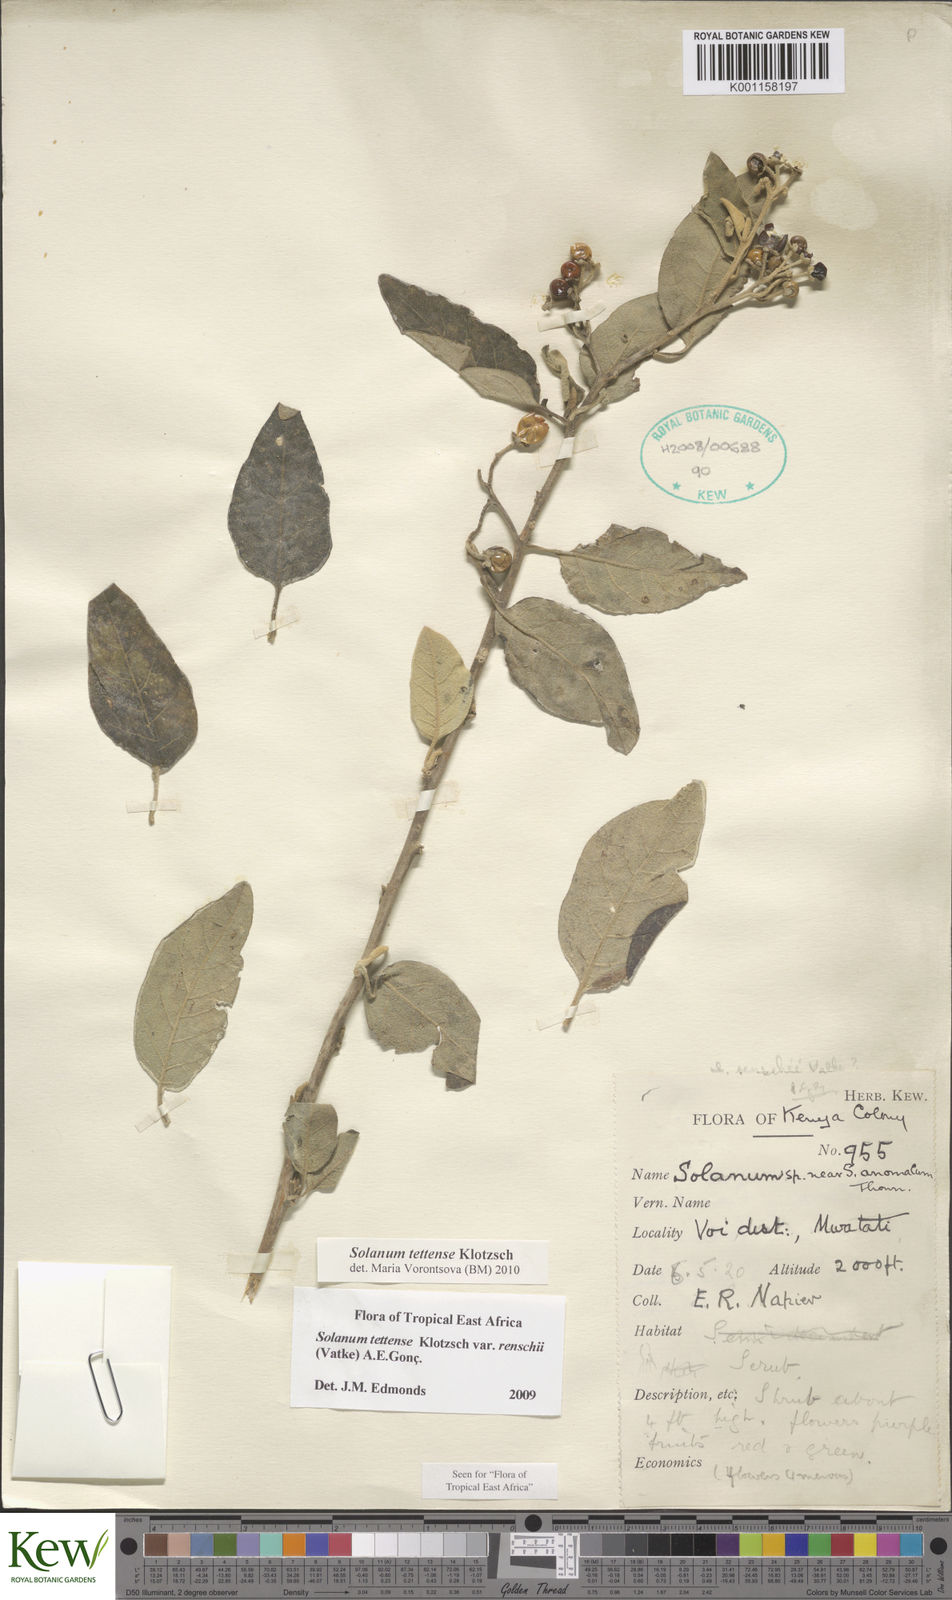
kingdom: Plantae
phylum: Tracheophyta
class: Magnoliopsida
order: Solanales
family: Solanaceae
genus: Solanum
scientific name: Solanum tettense
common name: Mozambique bitter apple
